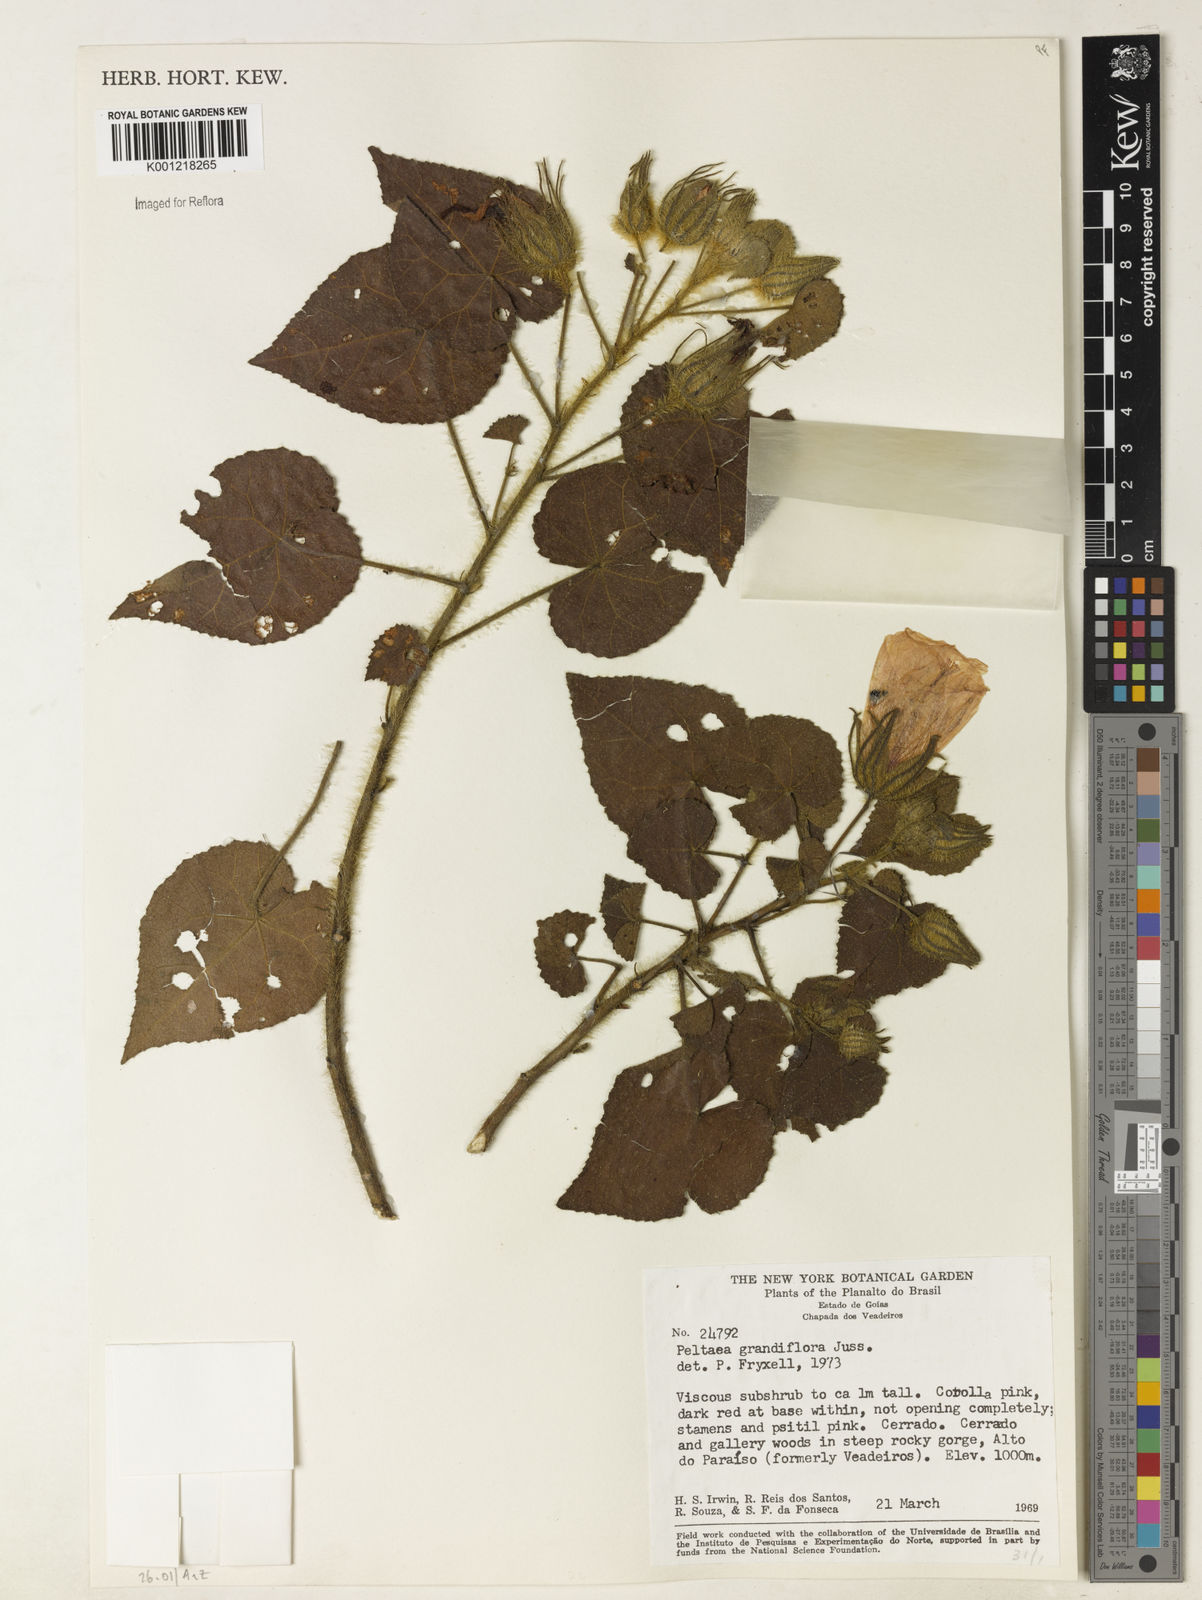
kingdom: Plantae
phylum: Tracheophyta
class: Magnoliopsida
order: Malvales
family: Malvaceae
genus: Peltaea
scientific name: Peltaea
